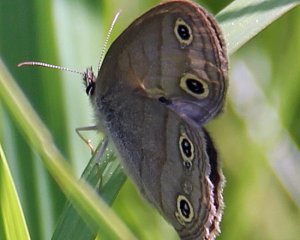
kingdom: Animalia
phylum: Arthropoda
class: Insecta
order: Lepidoptera
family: Nymphalidae
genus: Euptychia
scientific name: Euptychia cymela
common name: Little Wood Satyr
